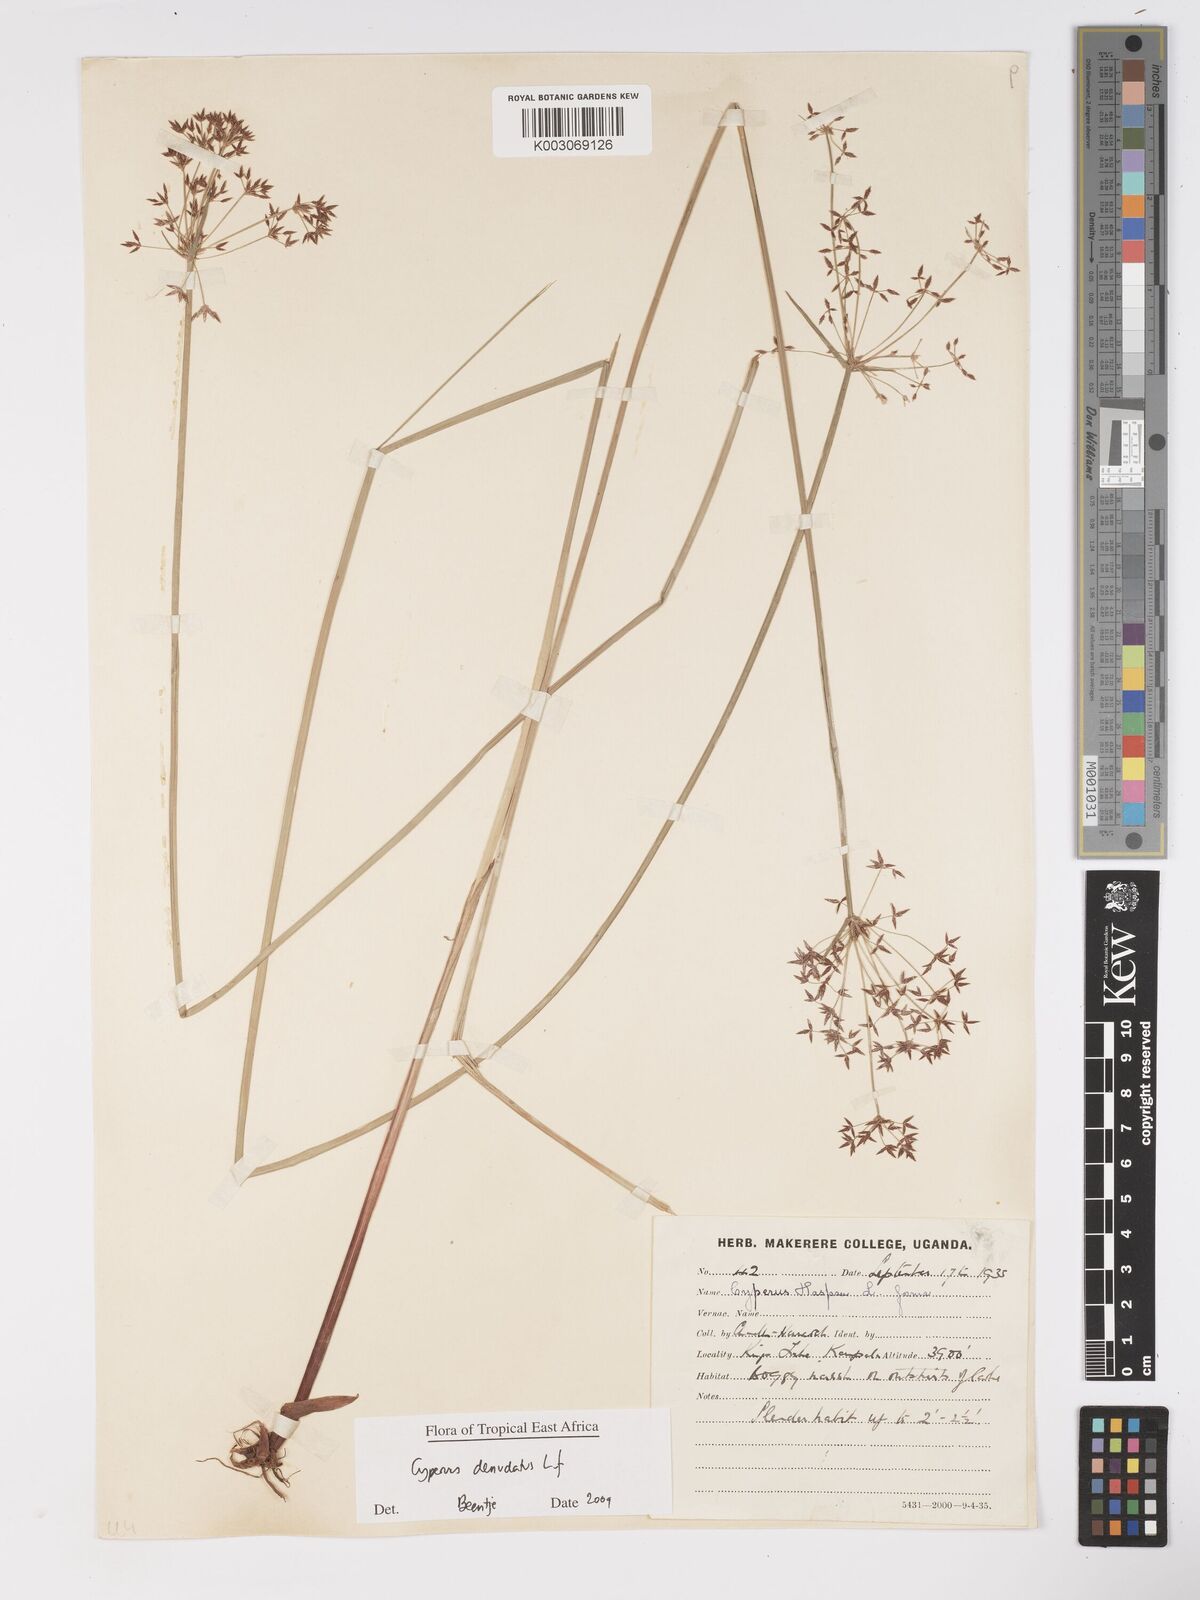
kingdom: Plantae
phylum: Tracheophyta
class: Liliopsida
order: Poales
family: Cyperaceae
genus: Cyperus
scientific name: Cyperus platycaulis
